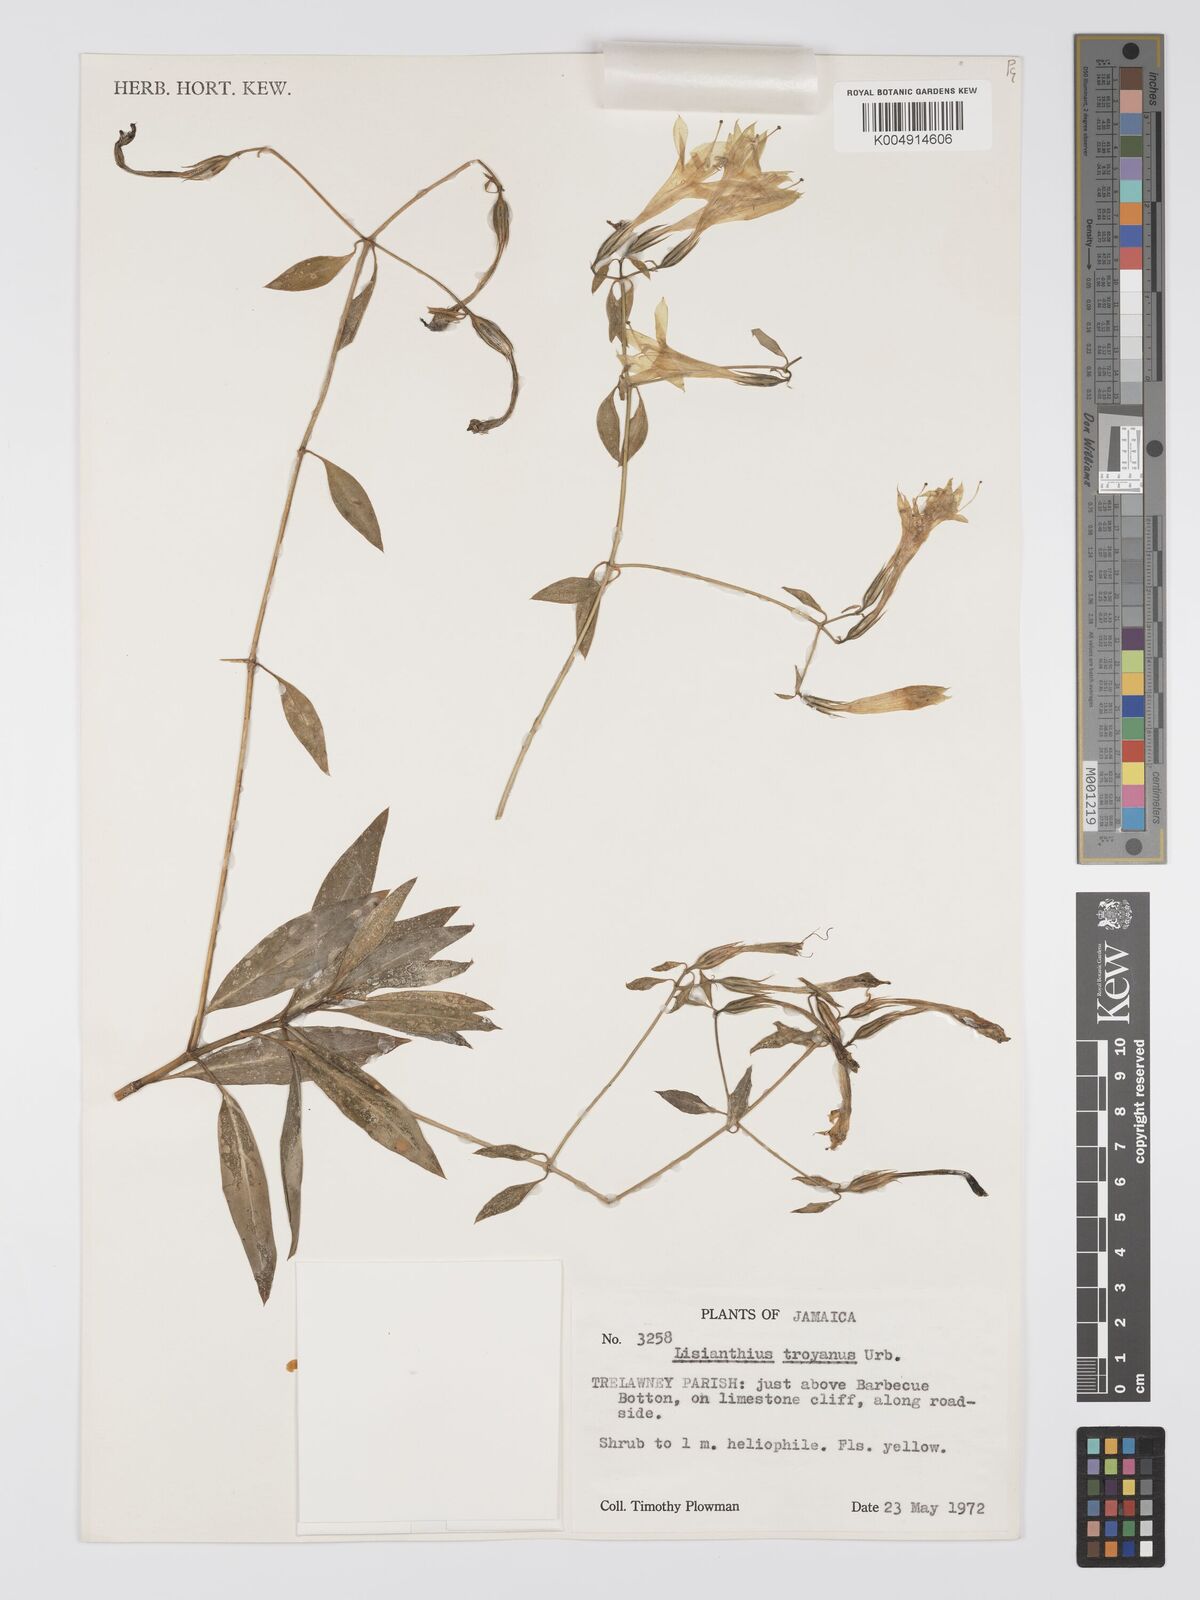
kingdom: Plantae
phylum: Tracheophyta
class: Magnoliopsida
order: Gentianales
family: Gentianaceae
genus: Lisianthius
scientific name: Lisianthius troyanus
